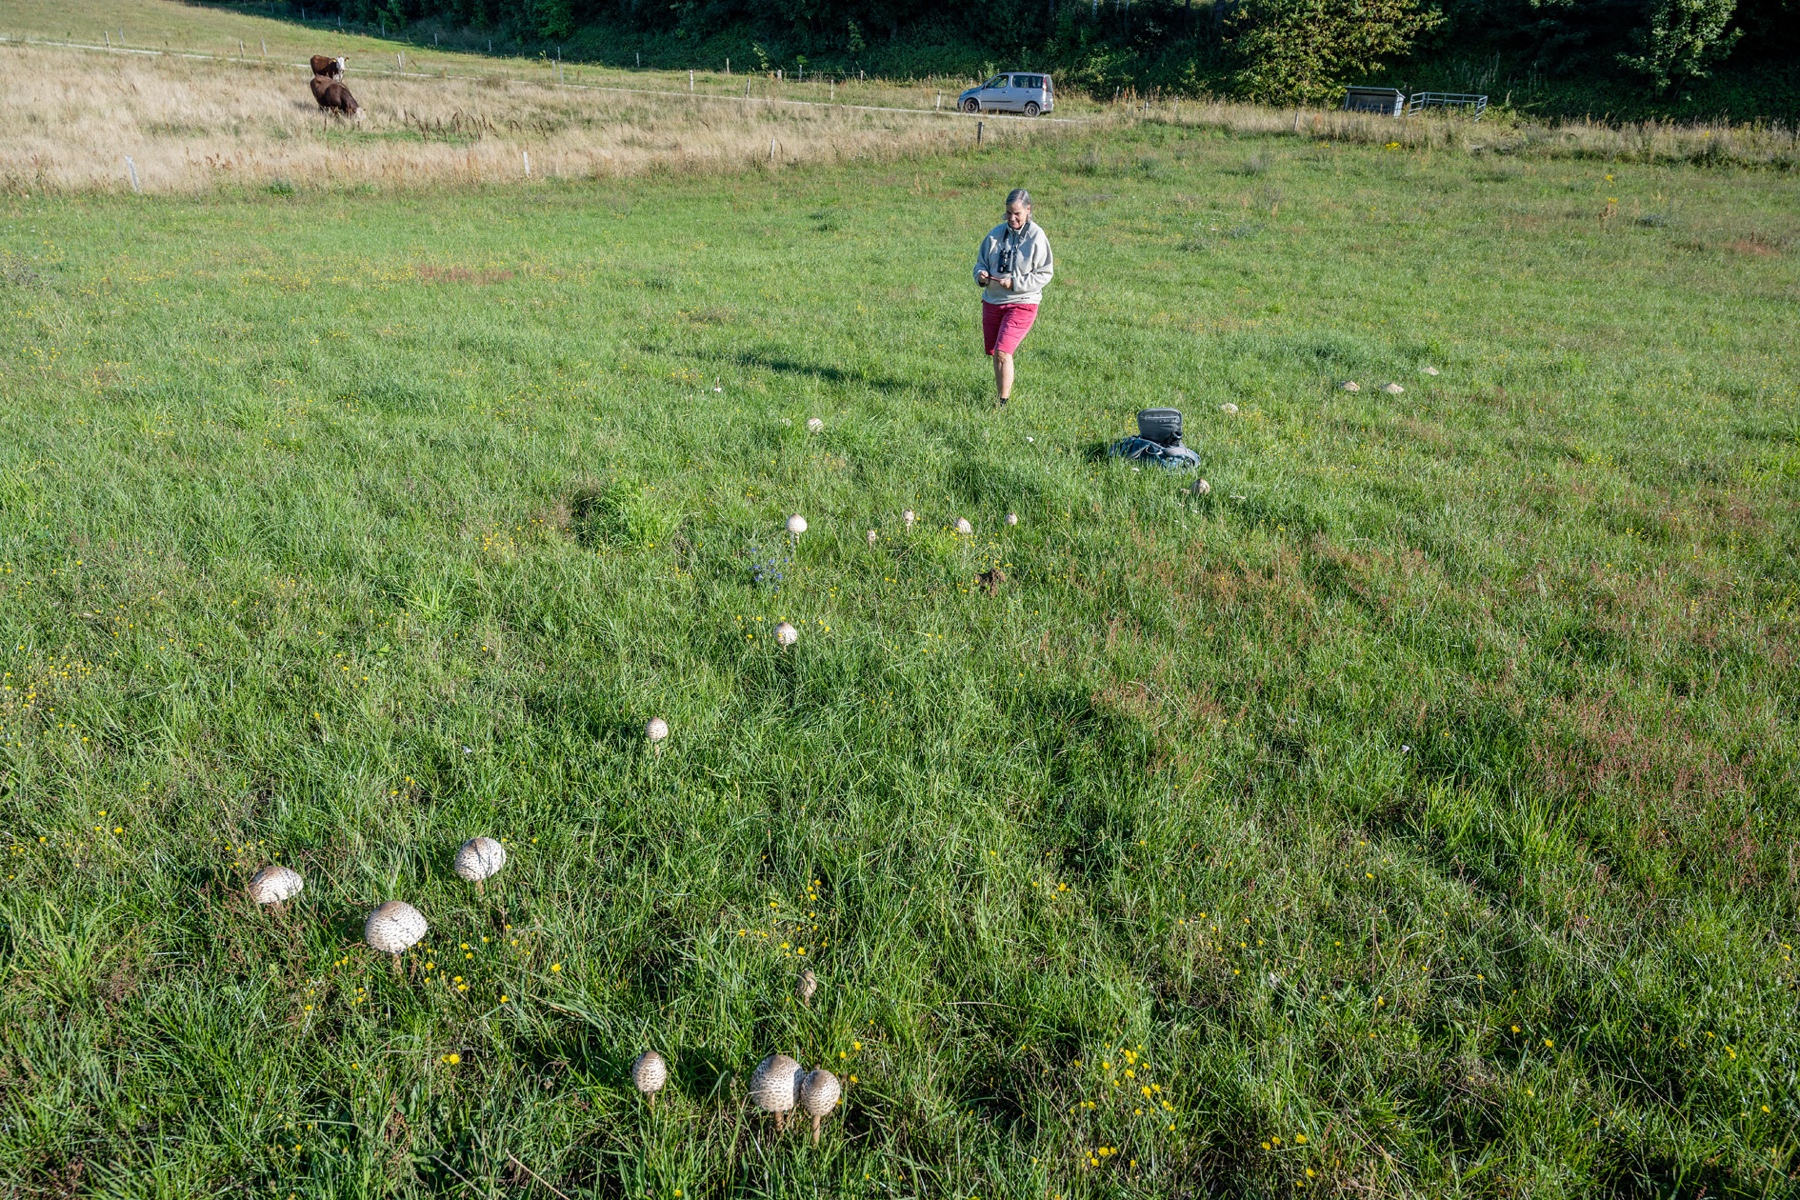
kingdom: Fungi
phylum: Basidiomycota
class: Agaricomycetes
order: Agaricales
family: Agaricaceae
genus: Macrolepiota
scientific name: Macrolepiota procera
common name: stor kæmpeparasolhat
